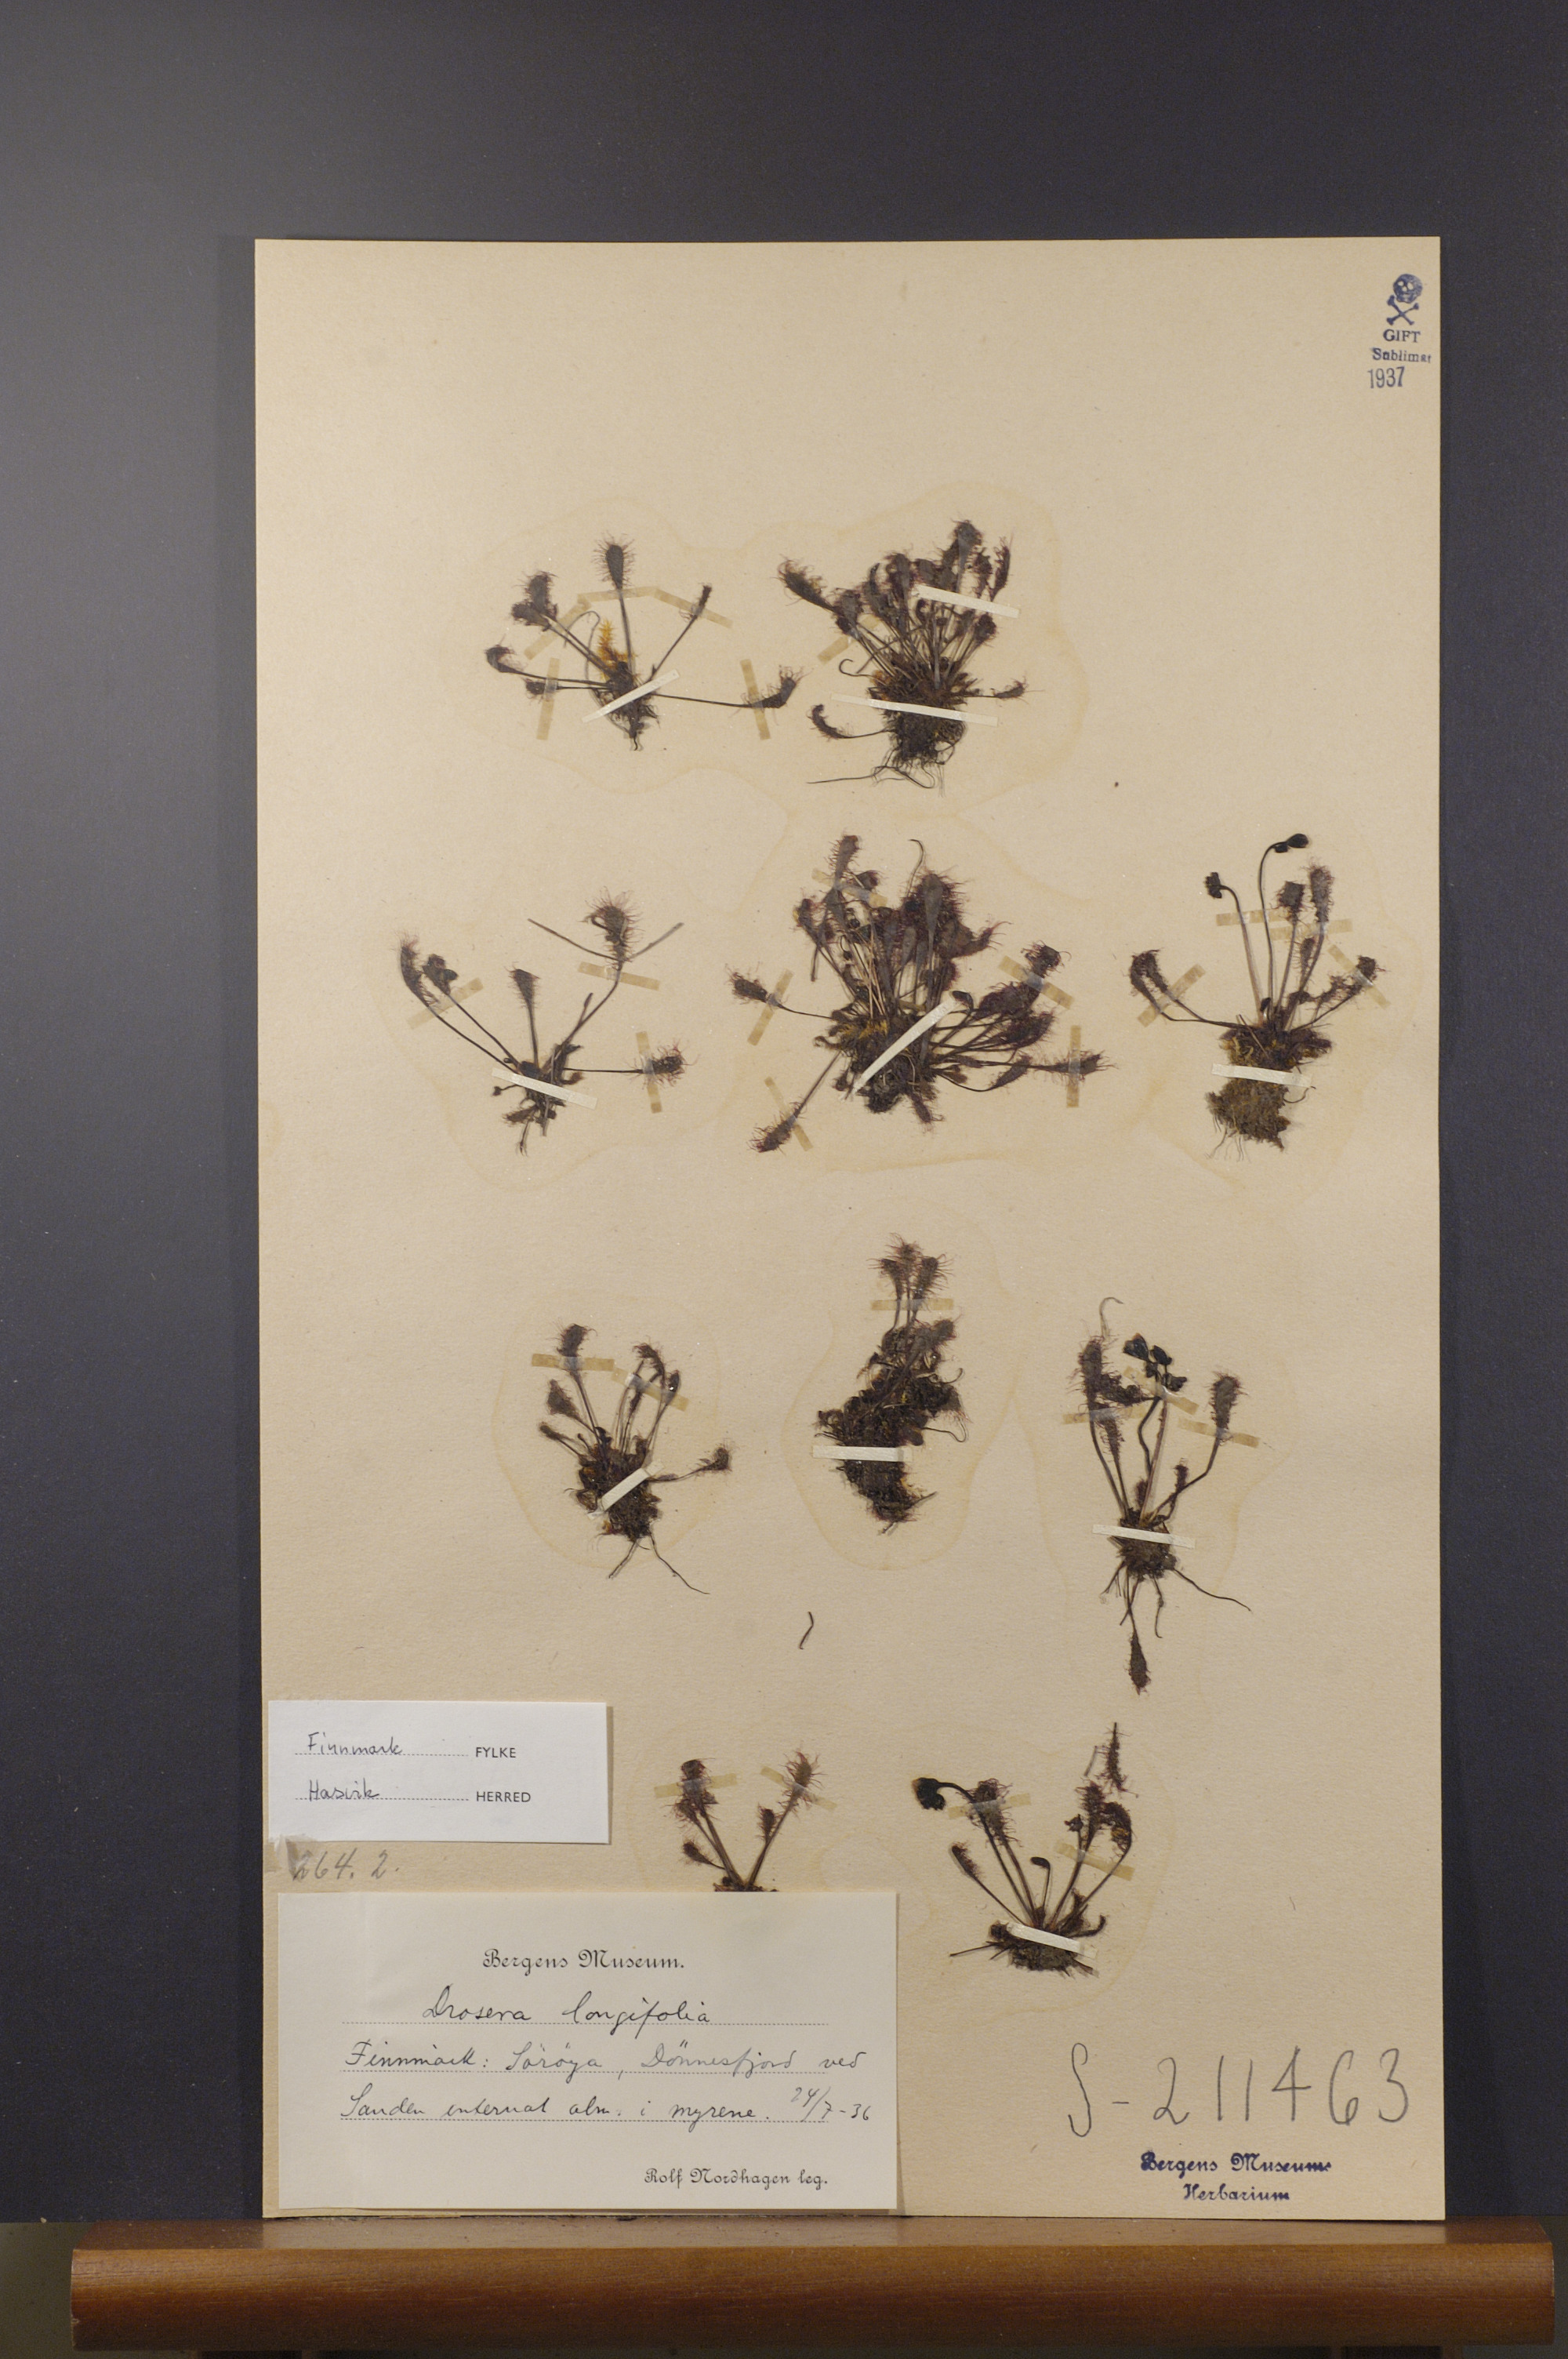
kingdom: Plantae
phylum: Tracheophyta
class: Magnoliopsida
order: Caryophyllales
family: Droseraceae
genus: Drosera
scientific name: Drosera anglica
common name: Great sundew
